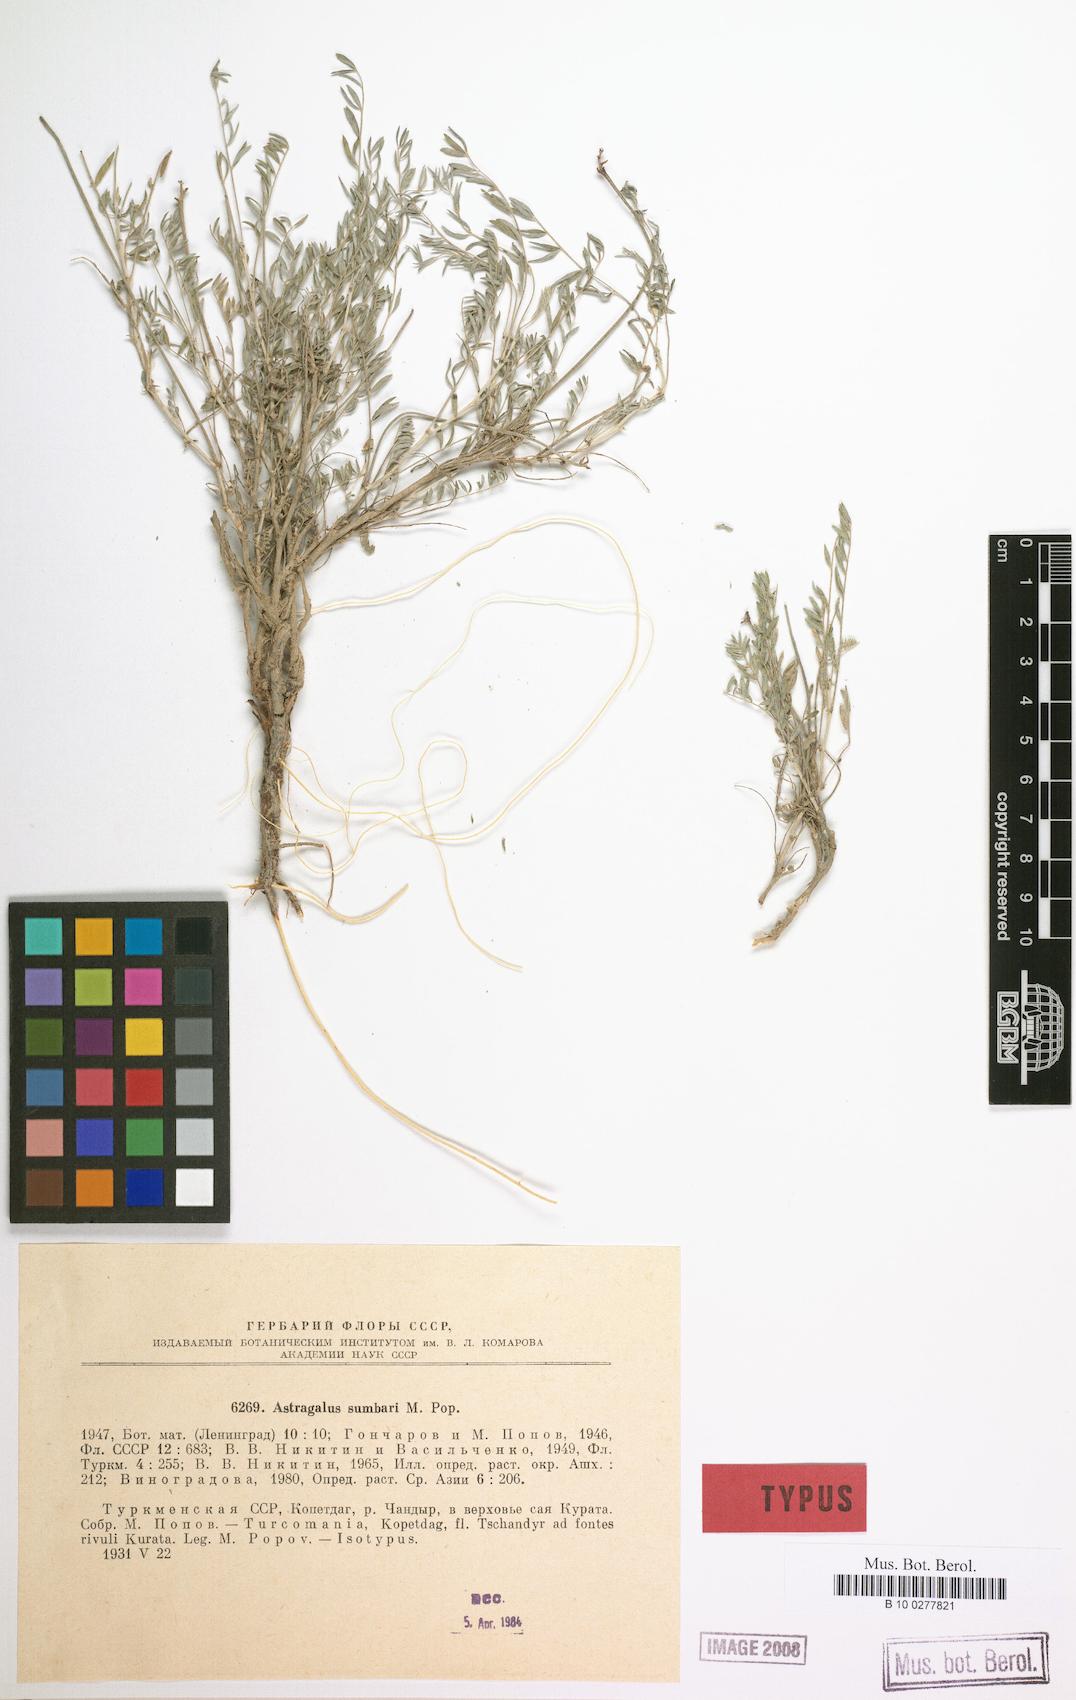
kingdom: Plantae
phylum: Tracheophyta
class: Magnoliopsida
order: Fabales
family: Fabaceae
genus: Astragalus
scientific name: Astragalus sumbari
